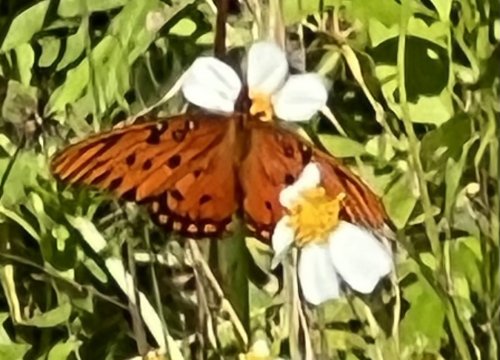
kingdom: Animalia
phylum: Arthropoda
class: Insecta
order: Lepidoptera
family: Nymphalidae
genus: Dione
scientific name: Dione vanillae
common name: Gulf Fritillary
